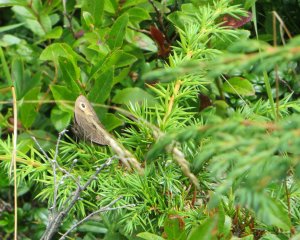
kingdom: Animalia
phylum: Arthropoda
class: Insecta
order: Lepidoptera
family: Nymphalidae
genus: Cercyonis
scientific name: Cercyonis pegala
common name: Common Wood-Nymph
